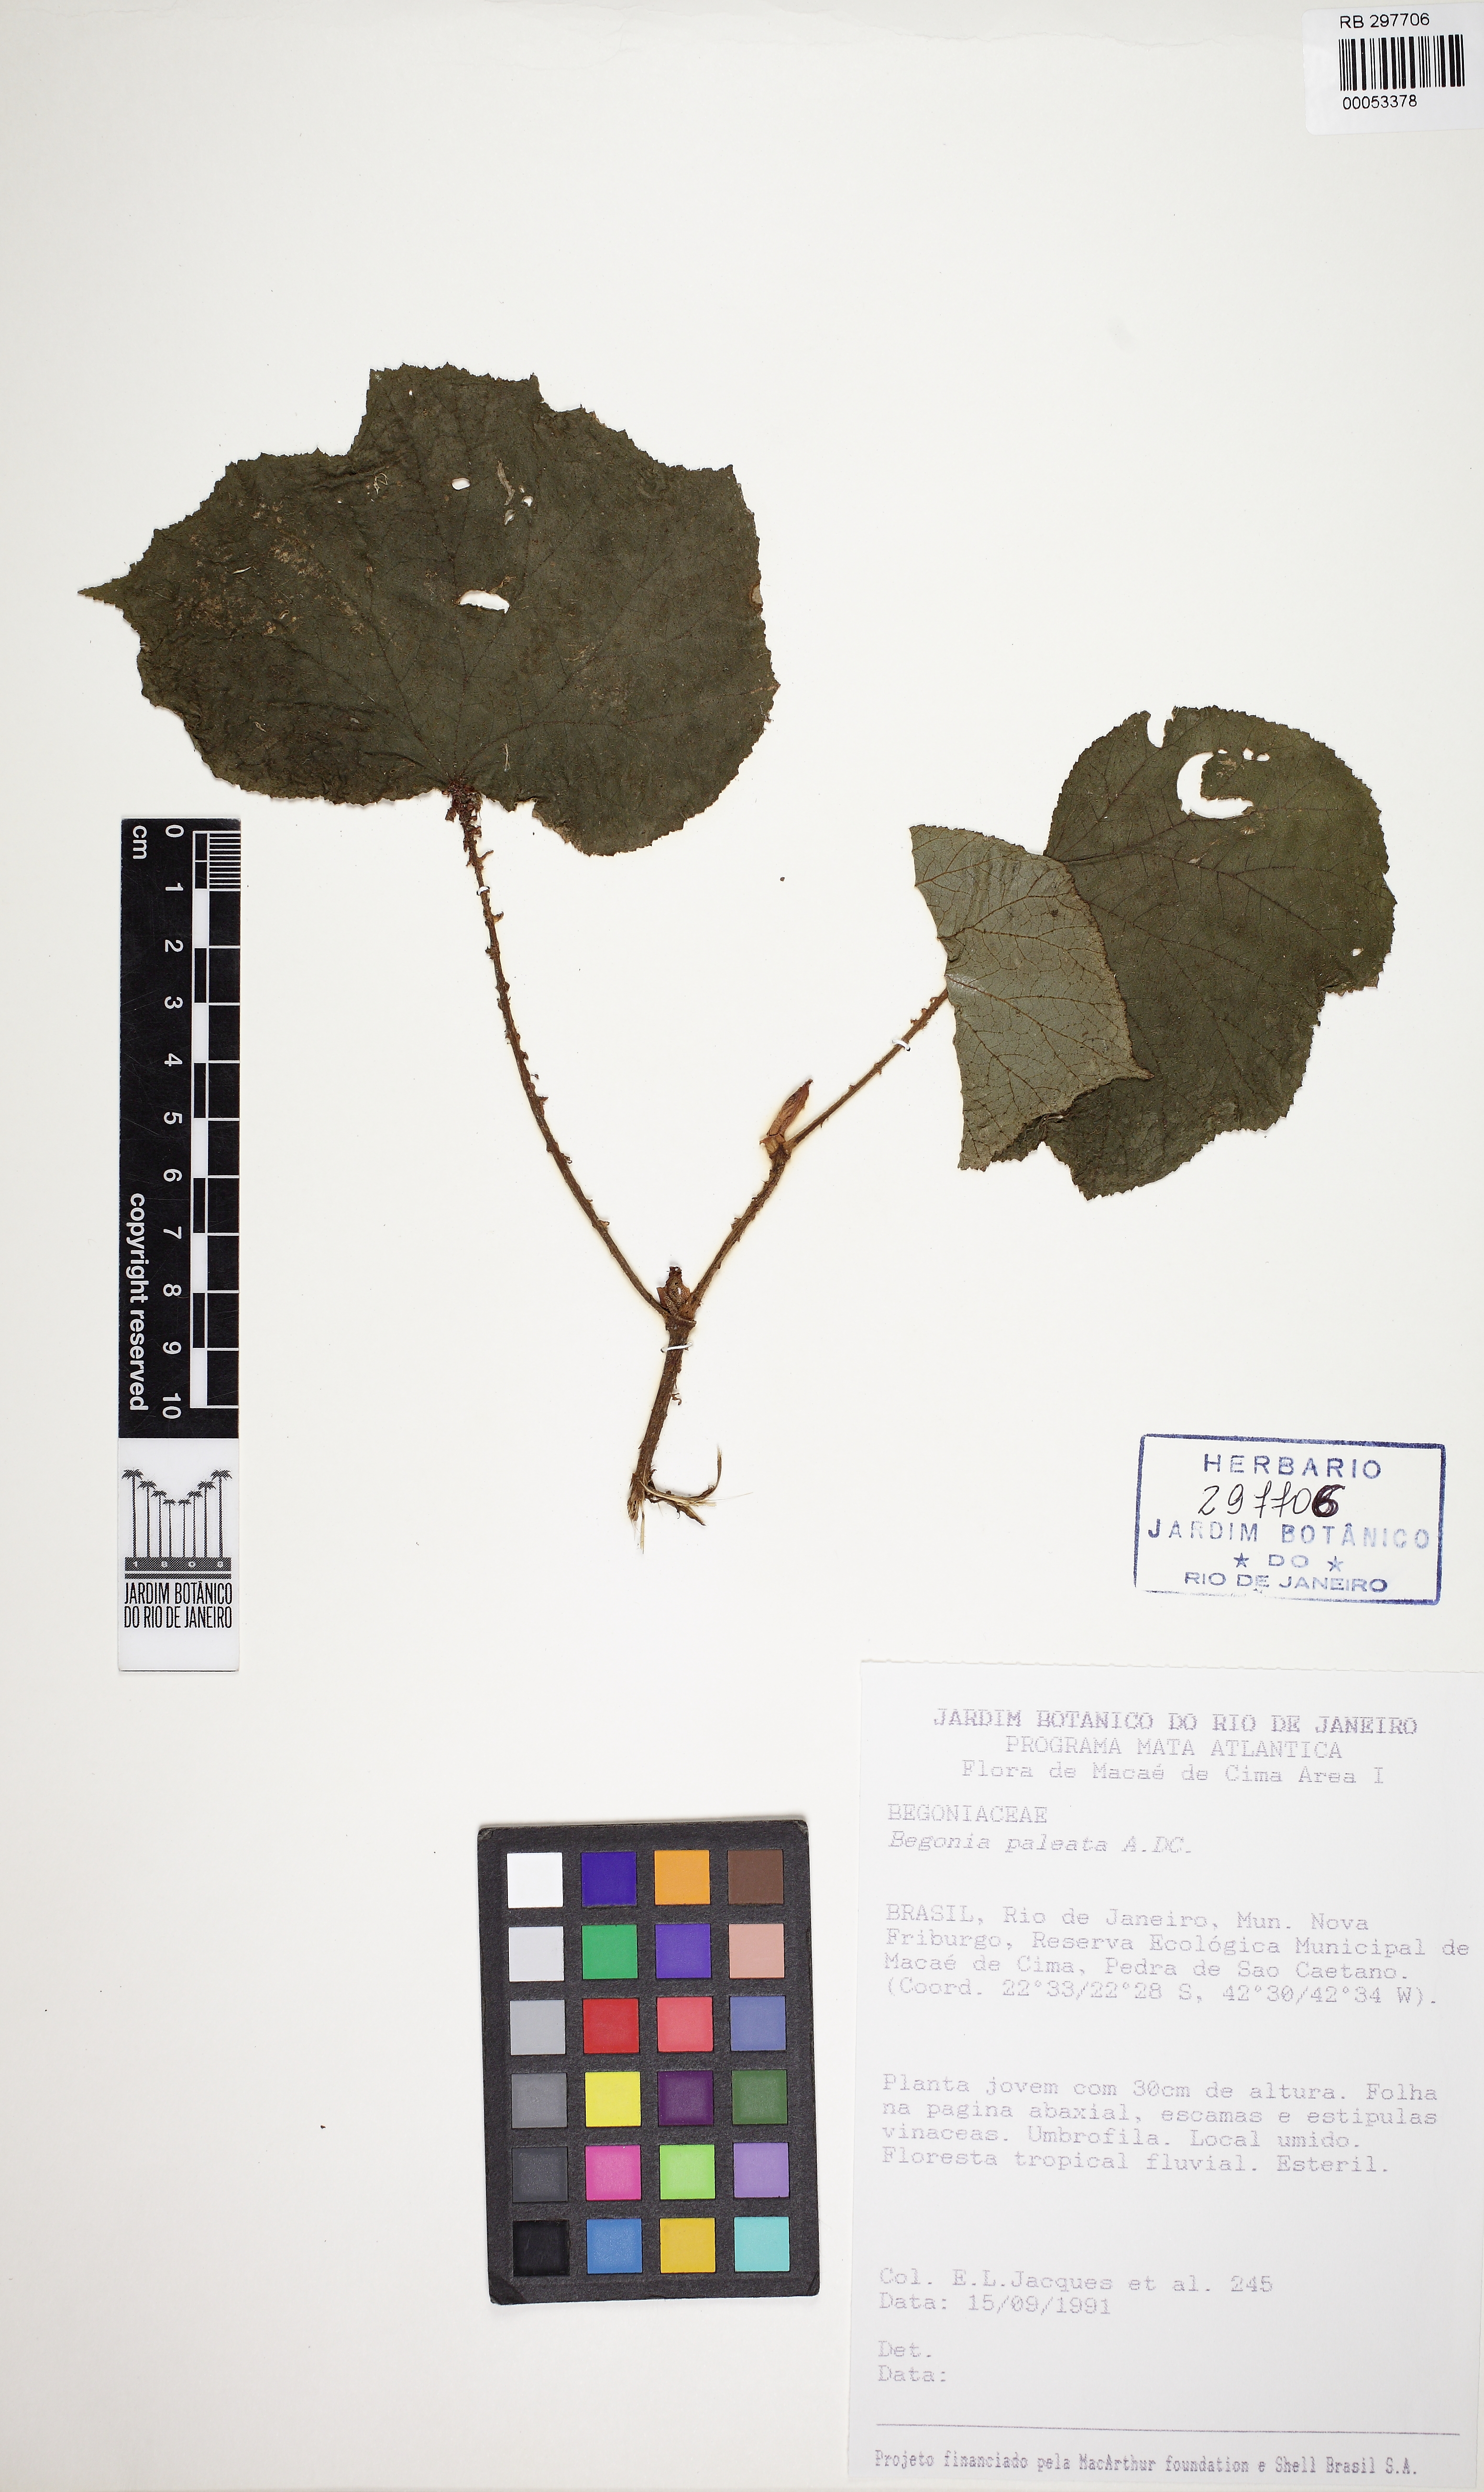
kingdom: Plantae
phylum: Tracheophyta
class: Magnoliopsida
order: Cucurbitales
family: Begoniaceae
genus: Begonia
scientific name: Begonia paleata
